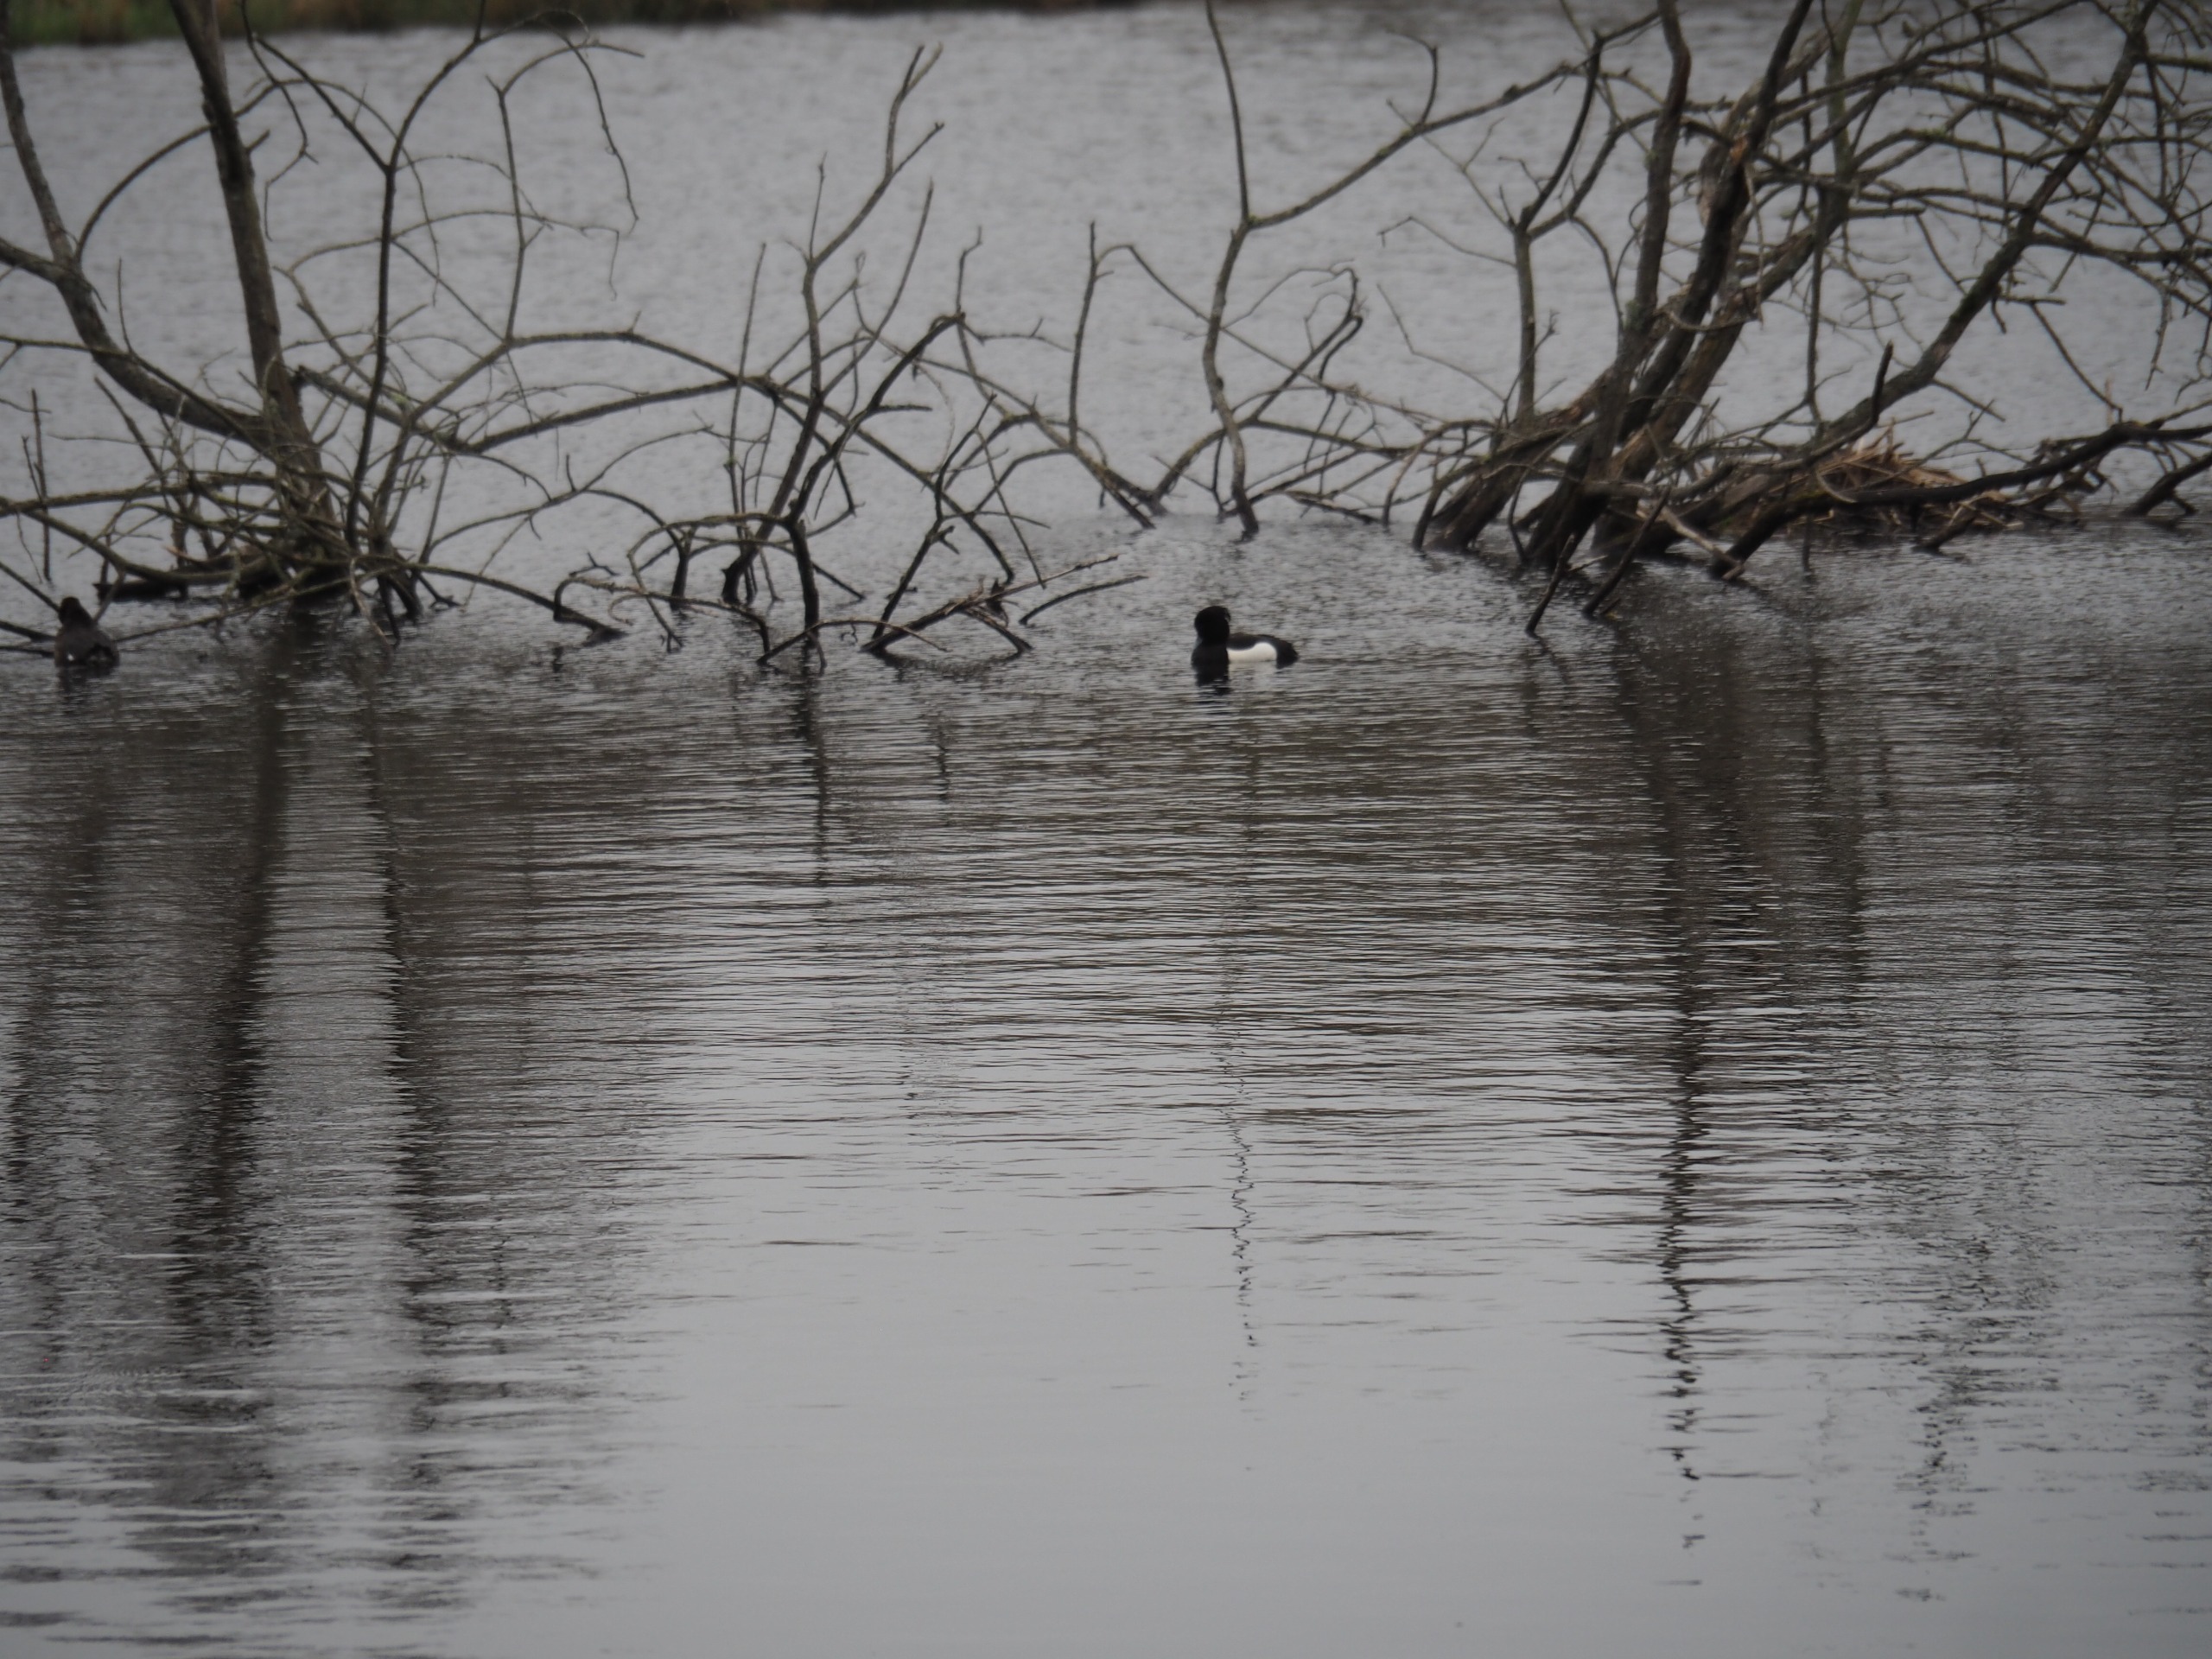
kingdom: Animalia
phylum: Chordata
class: Aves
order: Anseriformes
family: Anatidae
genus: Aythya
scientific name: Aythya fuligula
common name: Troldand
